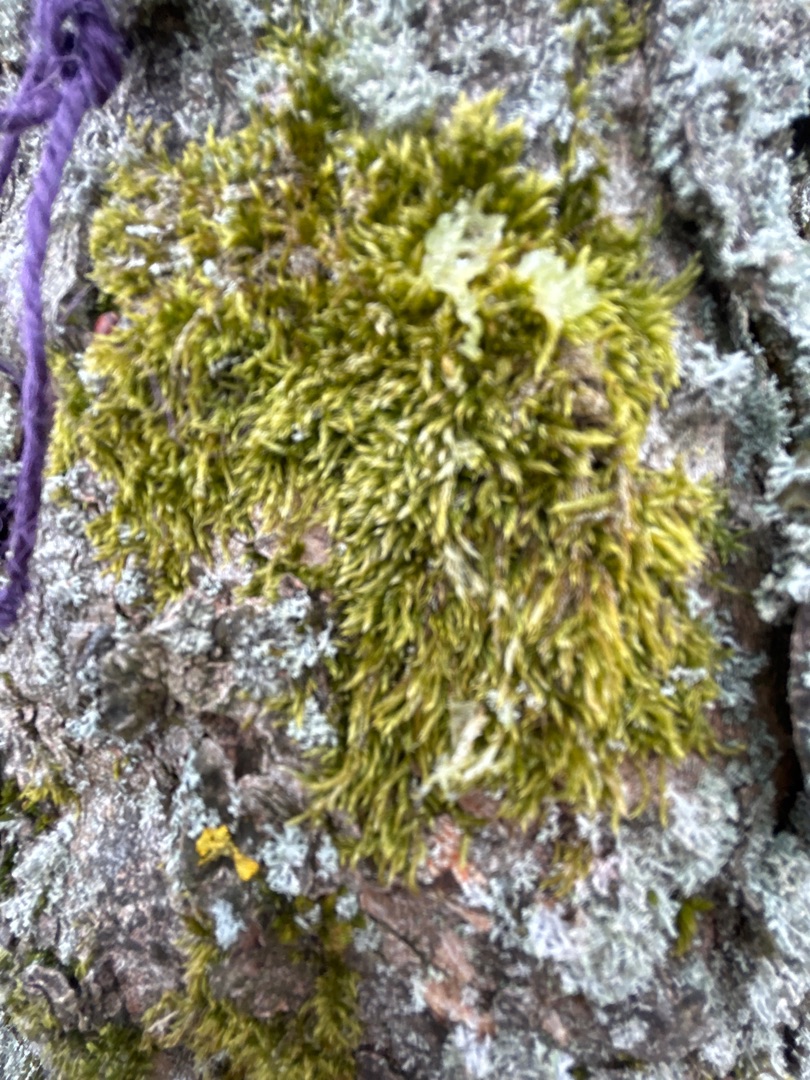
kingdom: Plantae
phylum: Bryophyta
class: Bryopsida
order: Hypnales
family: Hypnaceae
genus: Hypnum
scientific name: Hypnum
